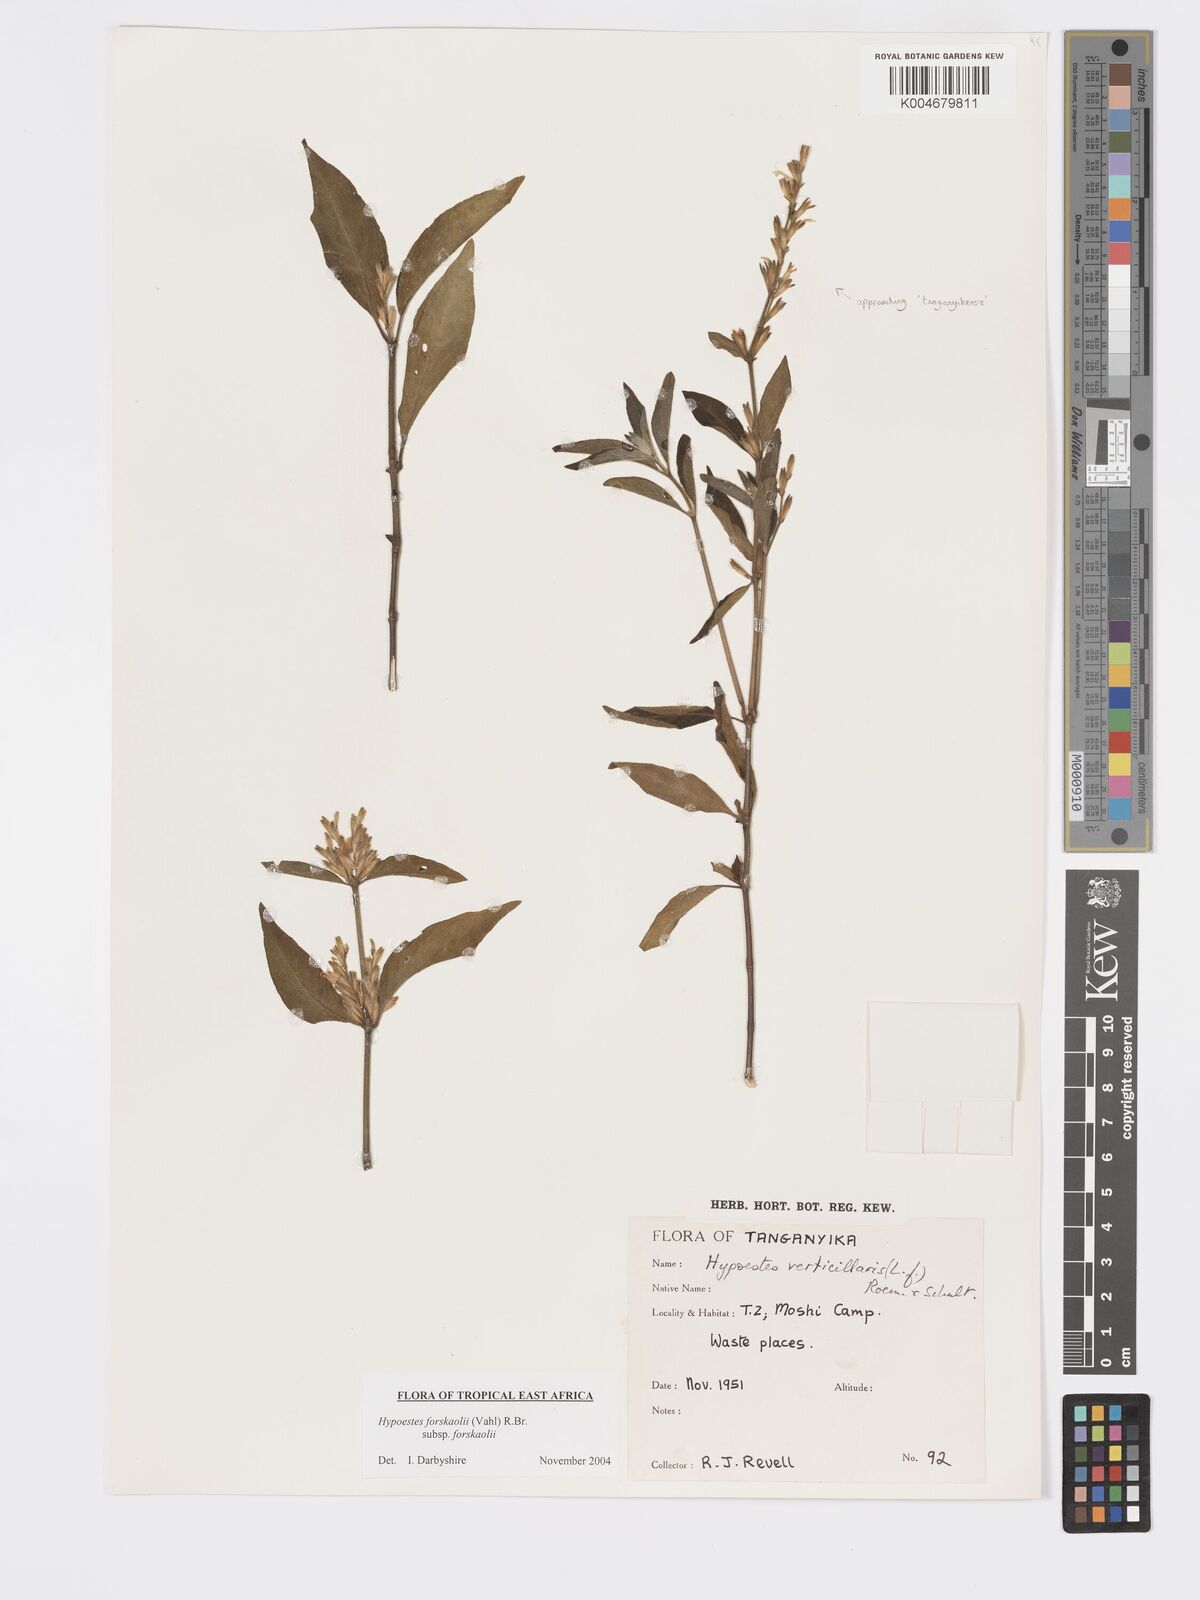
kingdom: Plantae
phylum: Tracheophyta
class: Magnoliopsida
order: Lamiales
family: Acanthaceae
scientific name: Acanthaceae
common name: Acanthaceae
